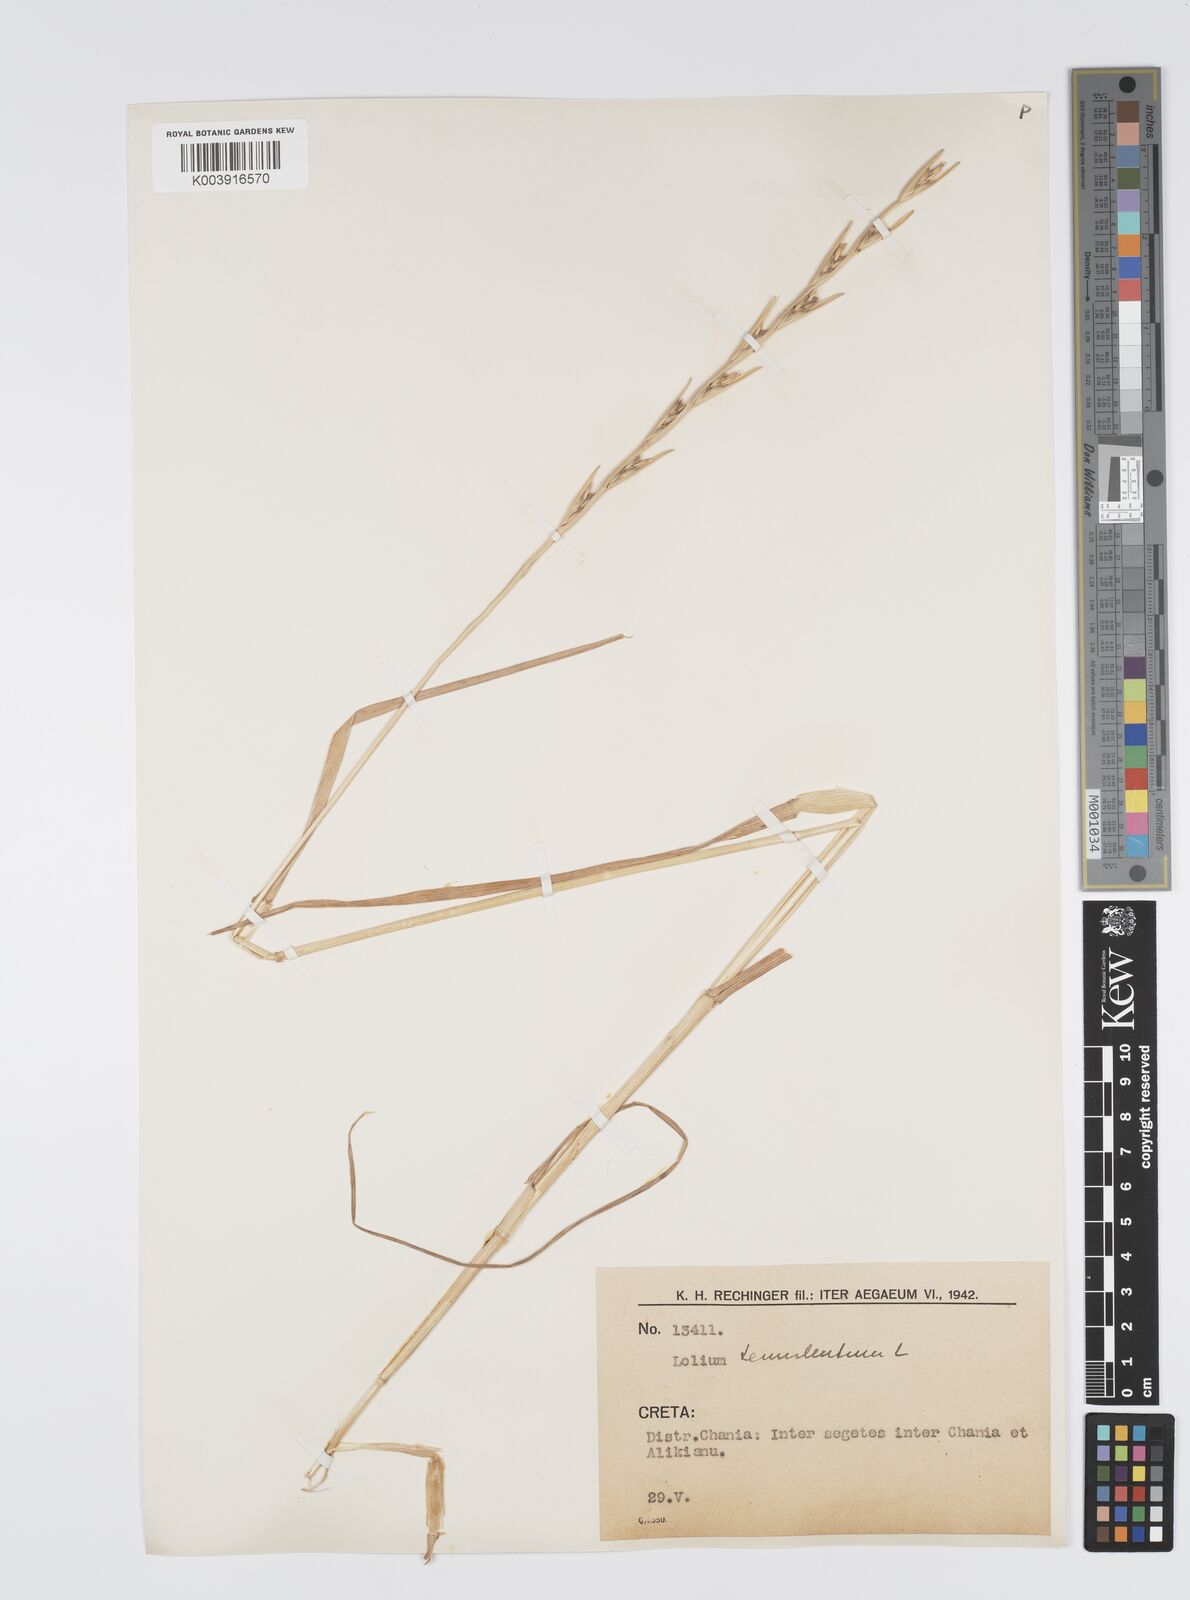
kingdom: Plantae
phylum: Tracheophyta
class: Liliopsida
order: Poales
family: Poaceae
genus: Lolium
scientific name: Lolium temulentum
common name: Darnel
